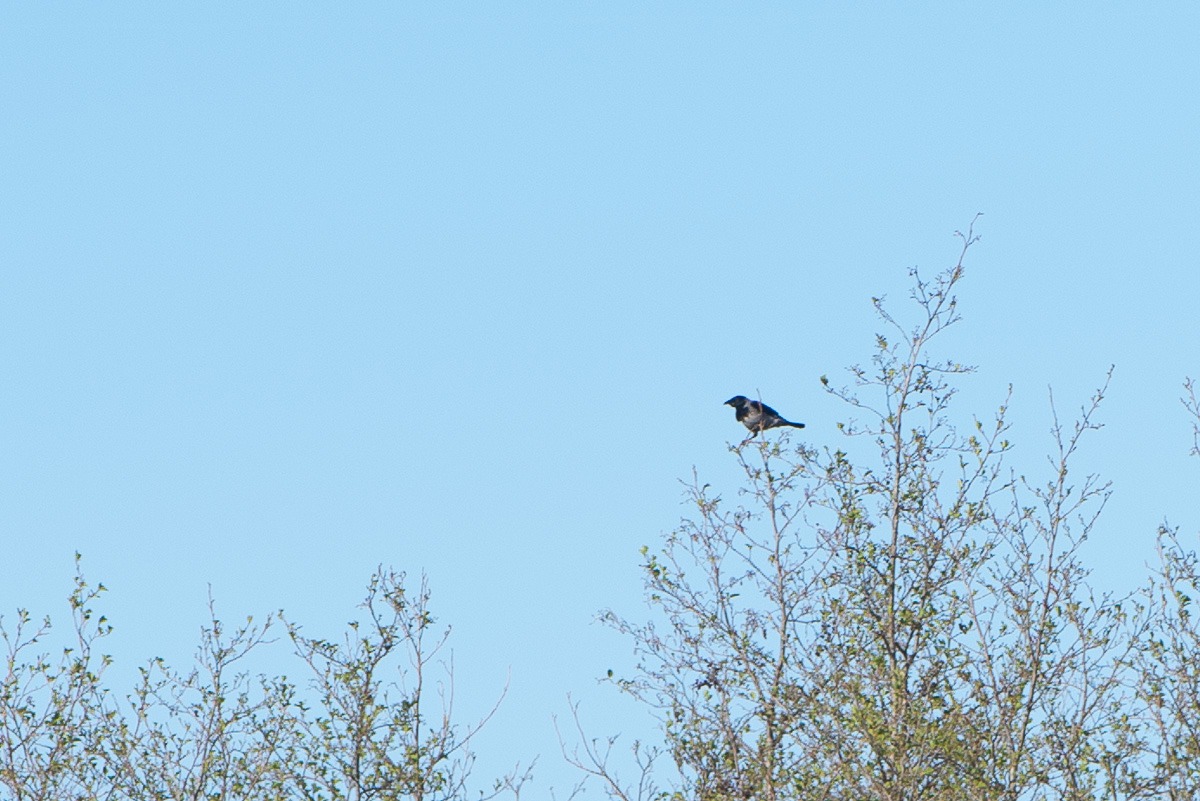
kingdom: Animalia
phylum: Chordata
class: Aves
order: Passeriformes
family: Corvidae
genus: Corvus
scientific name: Corvus cornix
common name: Gråkrage
